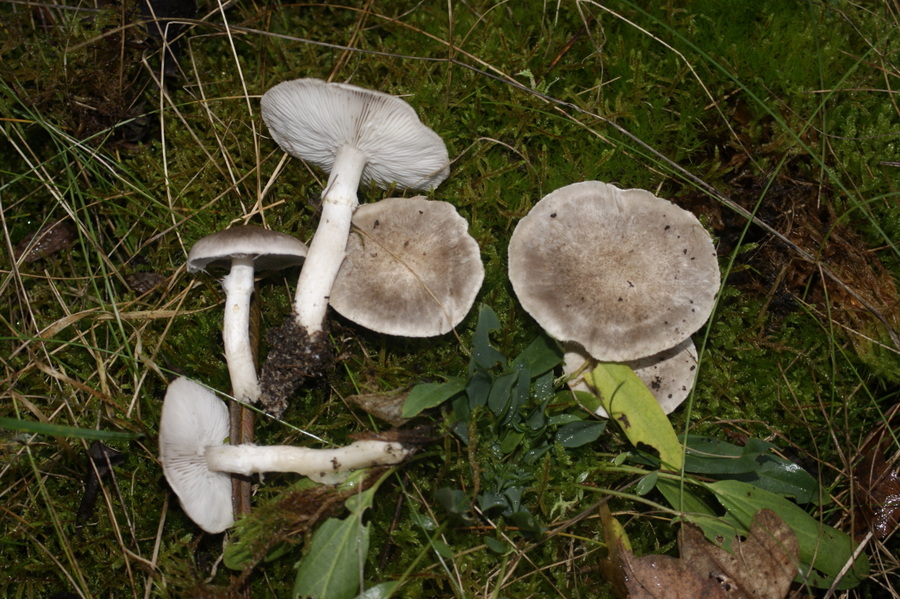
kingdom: Fungi
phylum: Basidiomycota
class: Agaricomycetes
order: Agaricales
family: Tricholomataceae
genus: Tricholoma
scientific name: Tricholoma cingulatum
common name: ring-ridderhat
